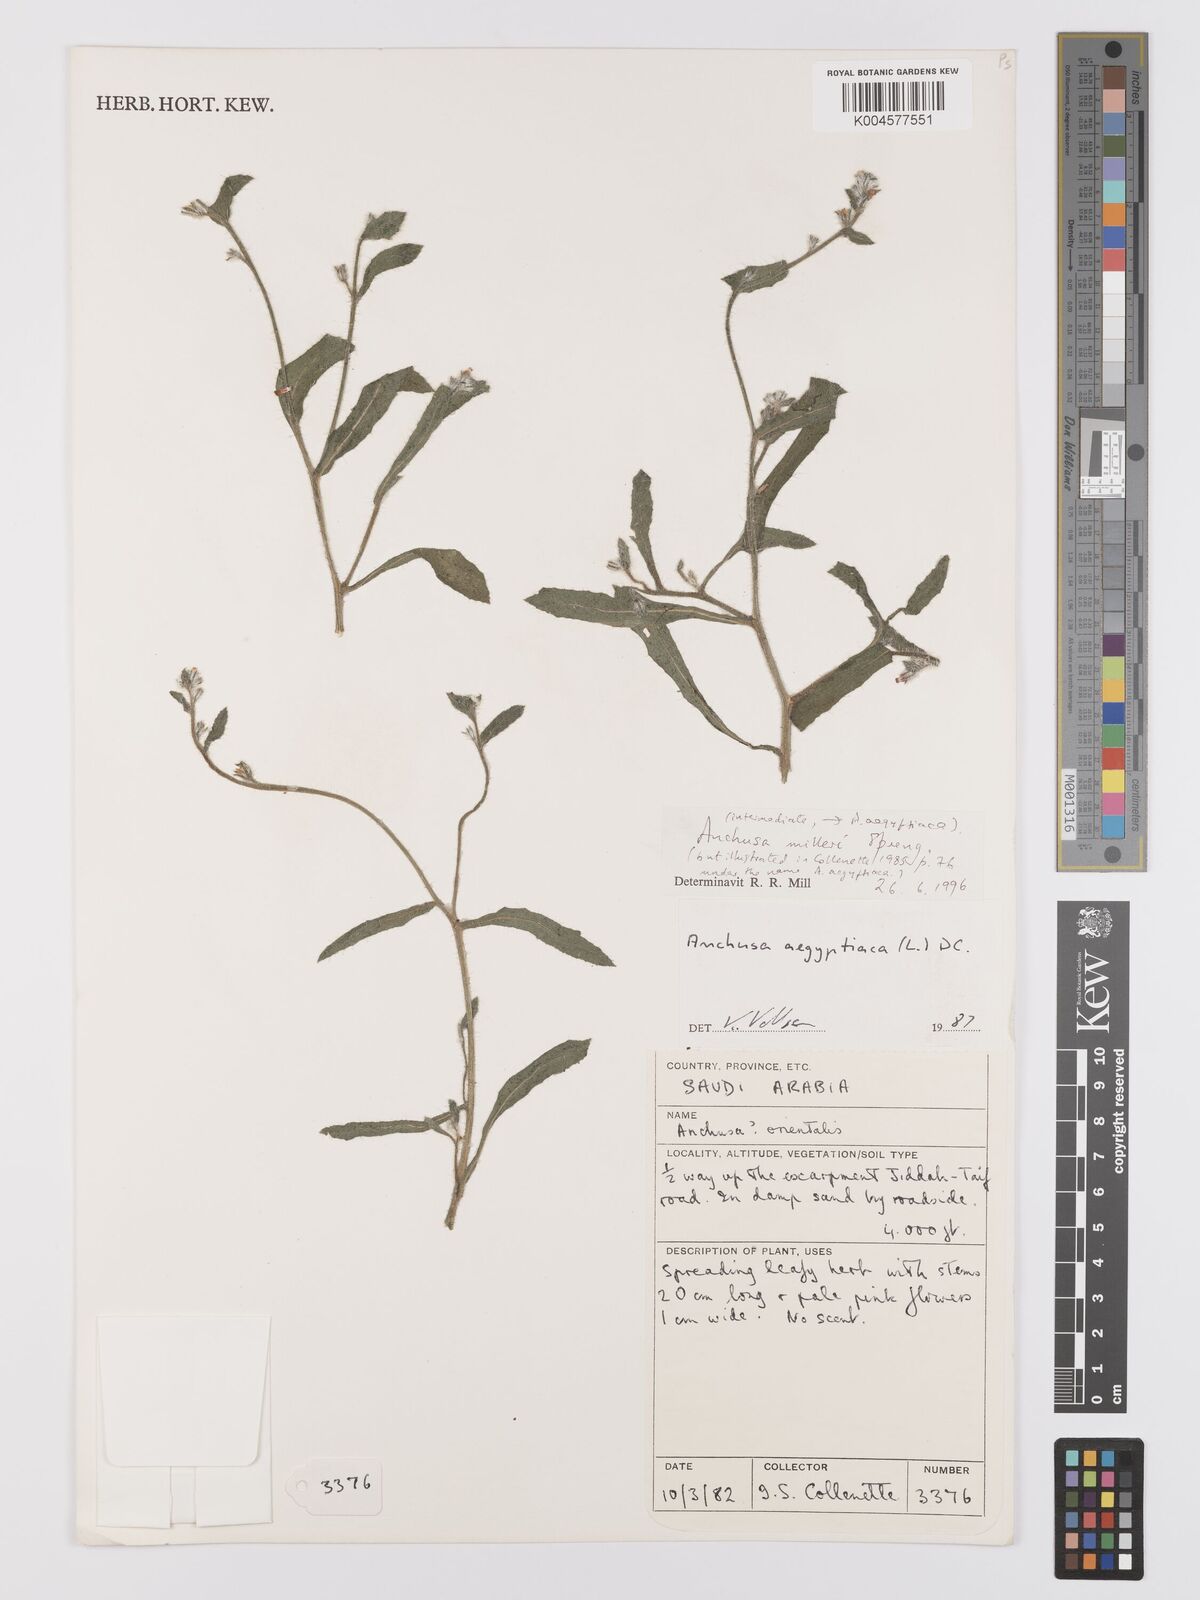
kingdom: Plantae
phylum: Tracheophyta
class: Magnoliopsida
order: Boraginales
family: Boraginaceae
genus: Anchusa
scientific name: Anchusa milleri
